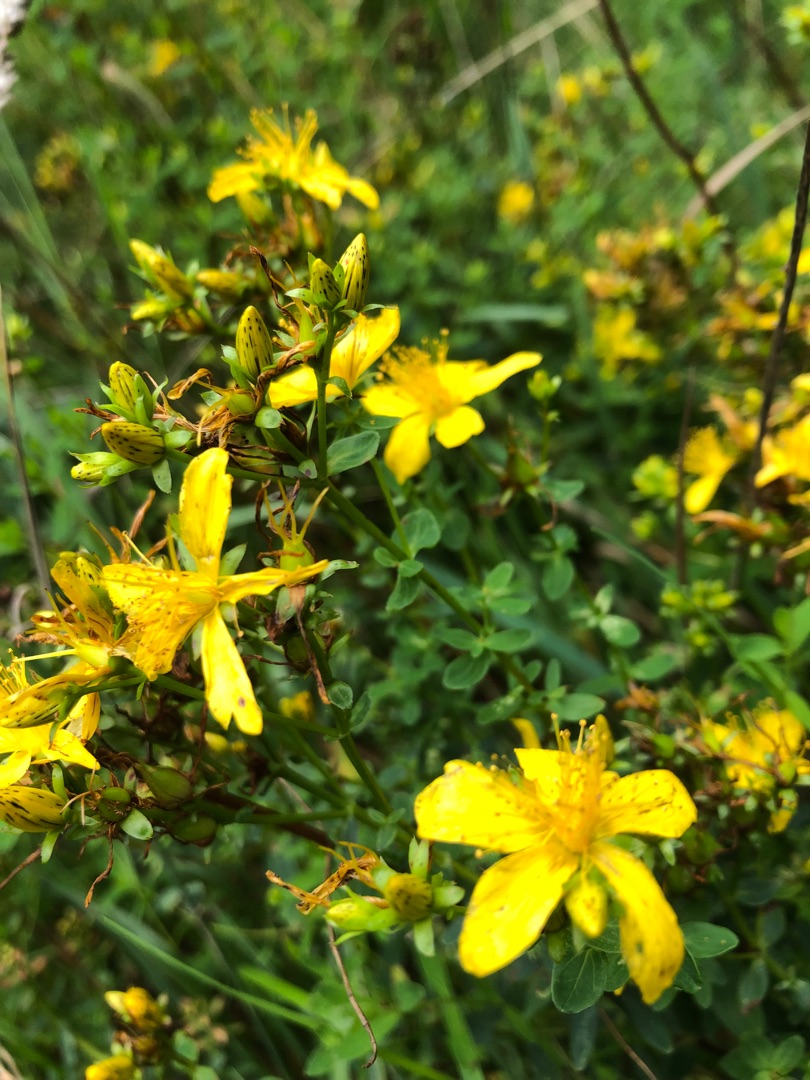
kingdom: Plantae
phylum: Tracheophyta
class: Magnoliopsida
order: Malpighiales
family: Hypericaceae
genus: Hypericum
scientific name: Hypericum perforatum
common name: Prikbladet perikon
